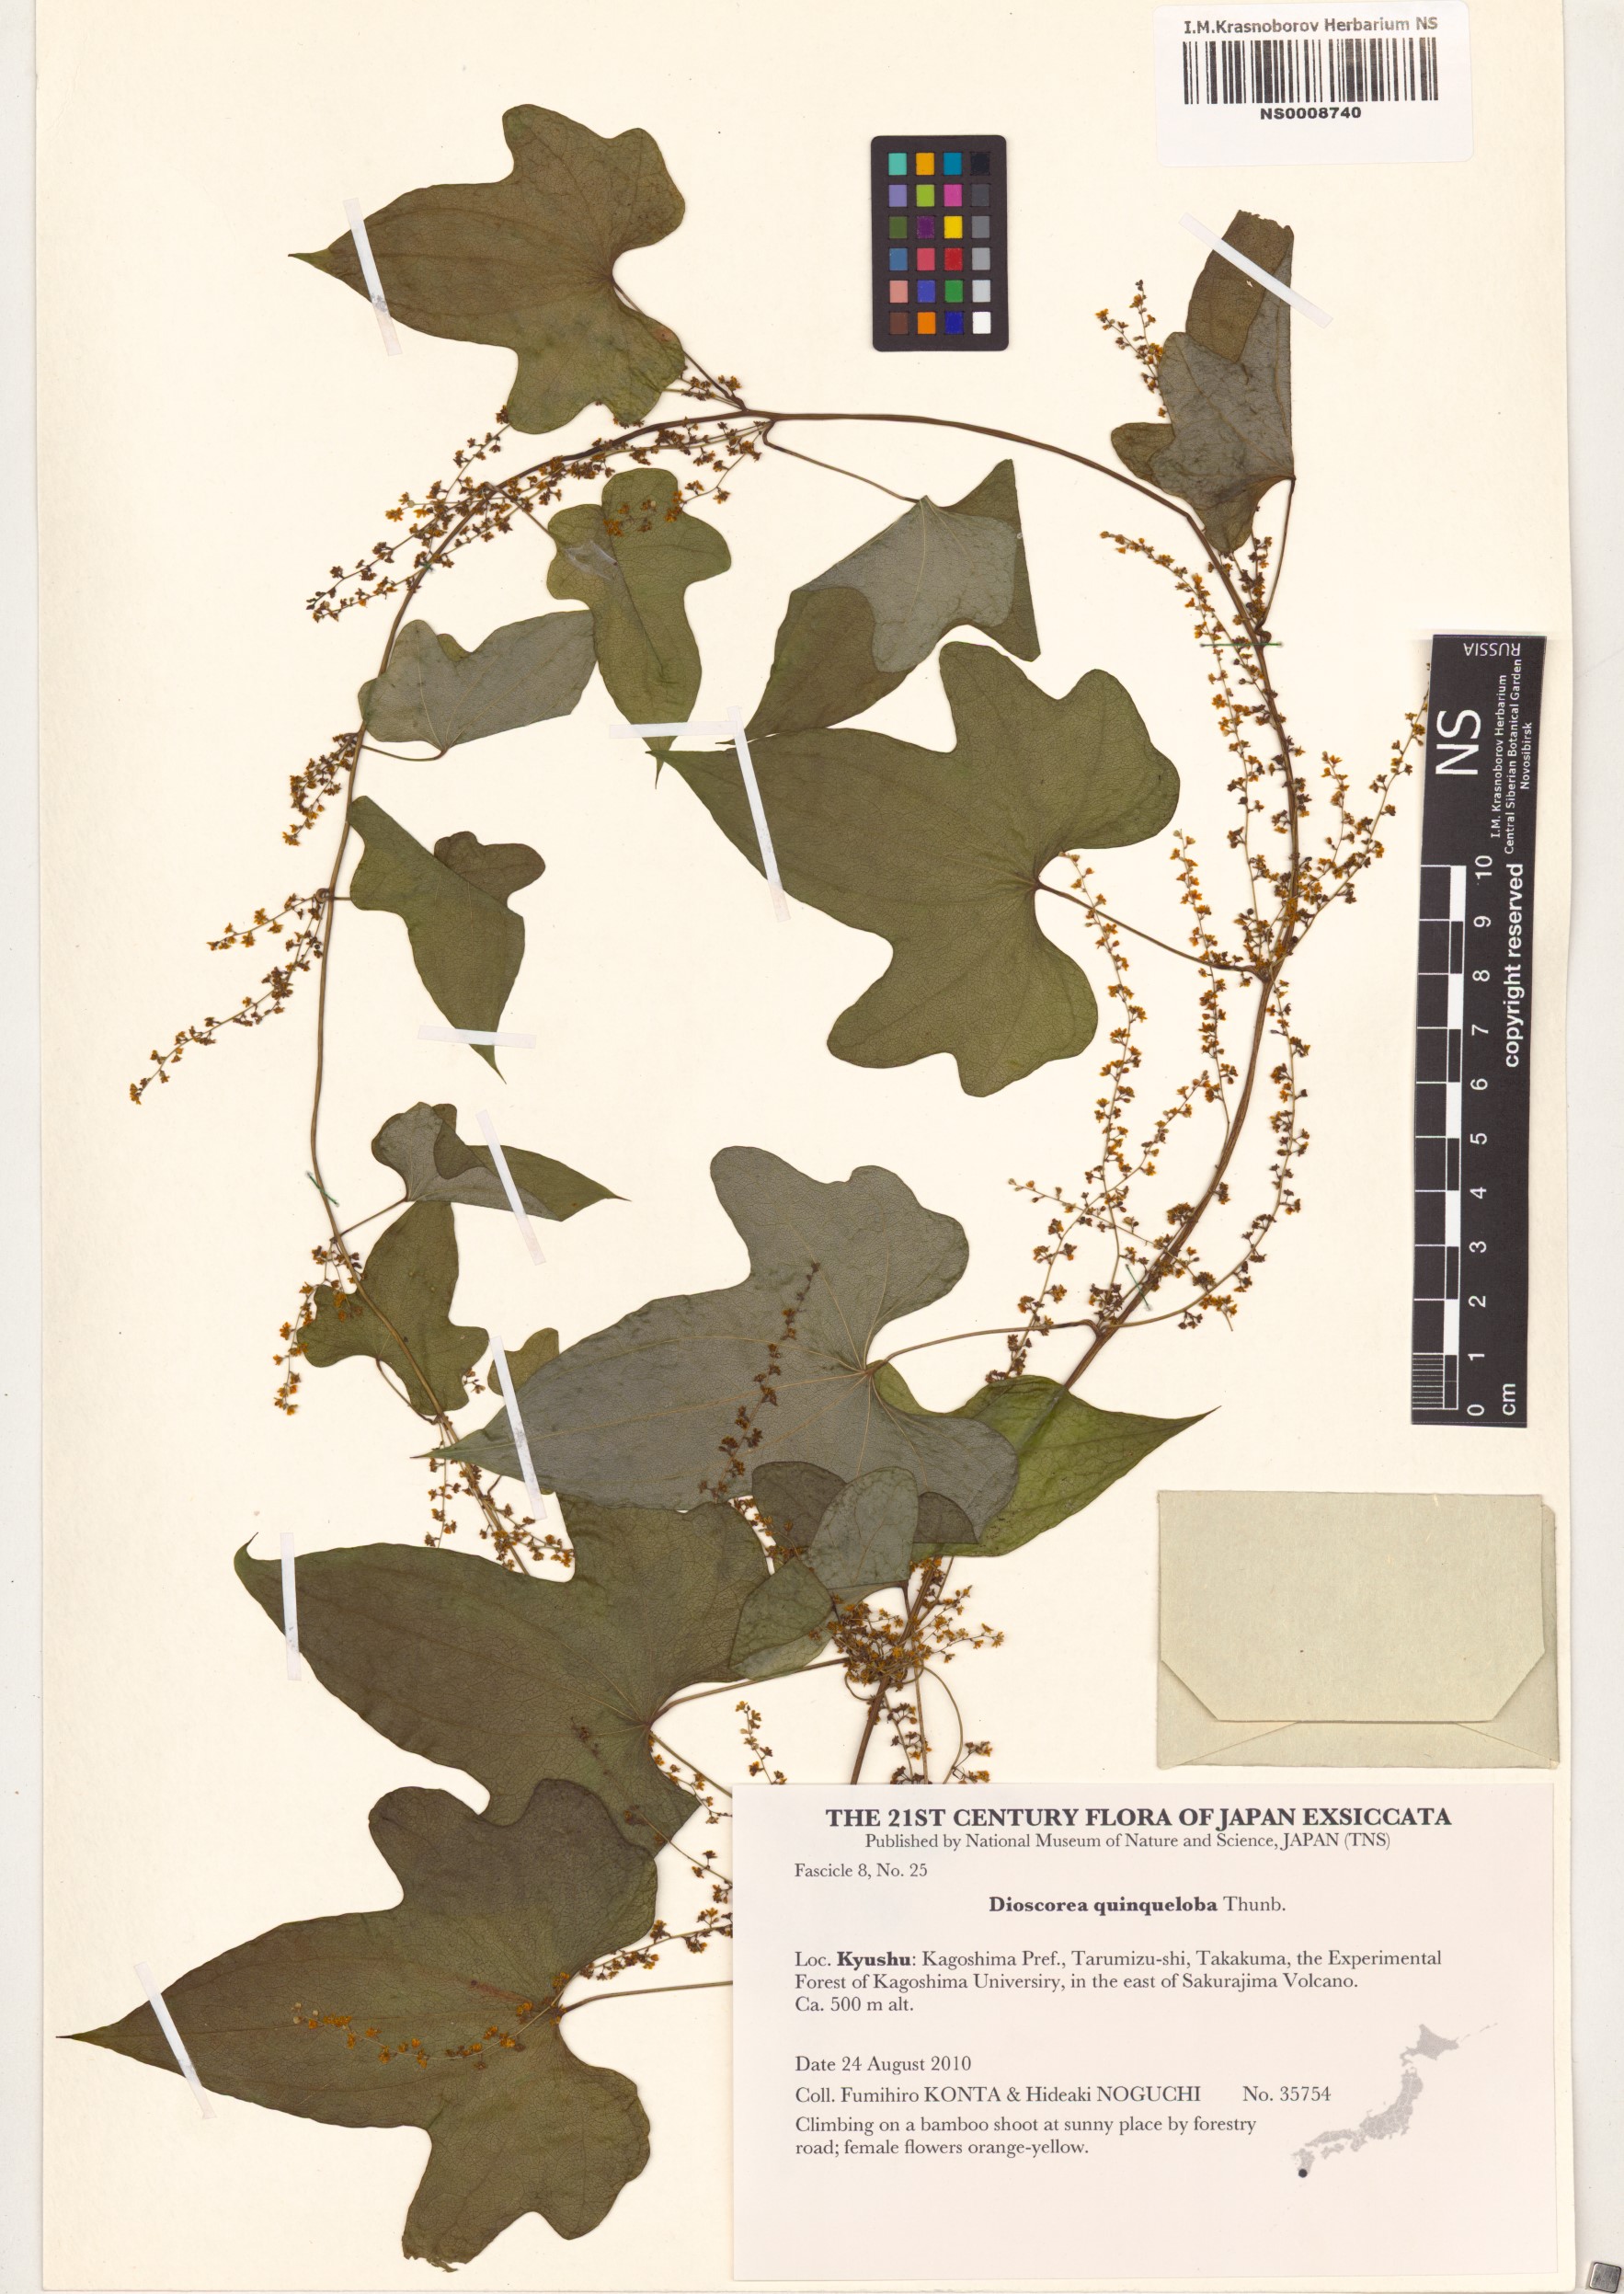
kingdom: Plantae
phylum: Tracheophyta
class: Liliopsida
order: Dioscoreales
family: Dioscoreaceae
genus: Dioscorea
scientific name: Dioscorea quinquelobata
